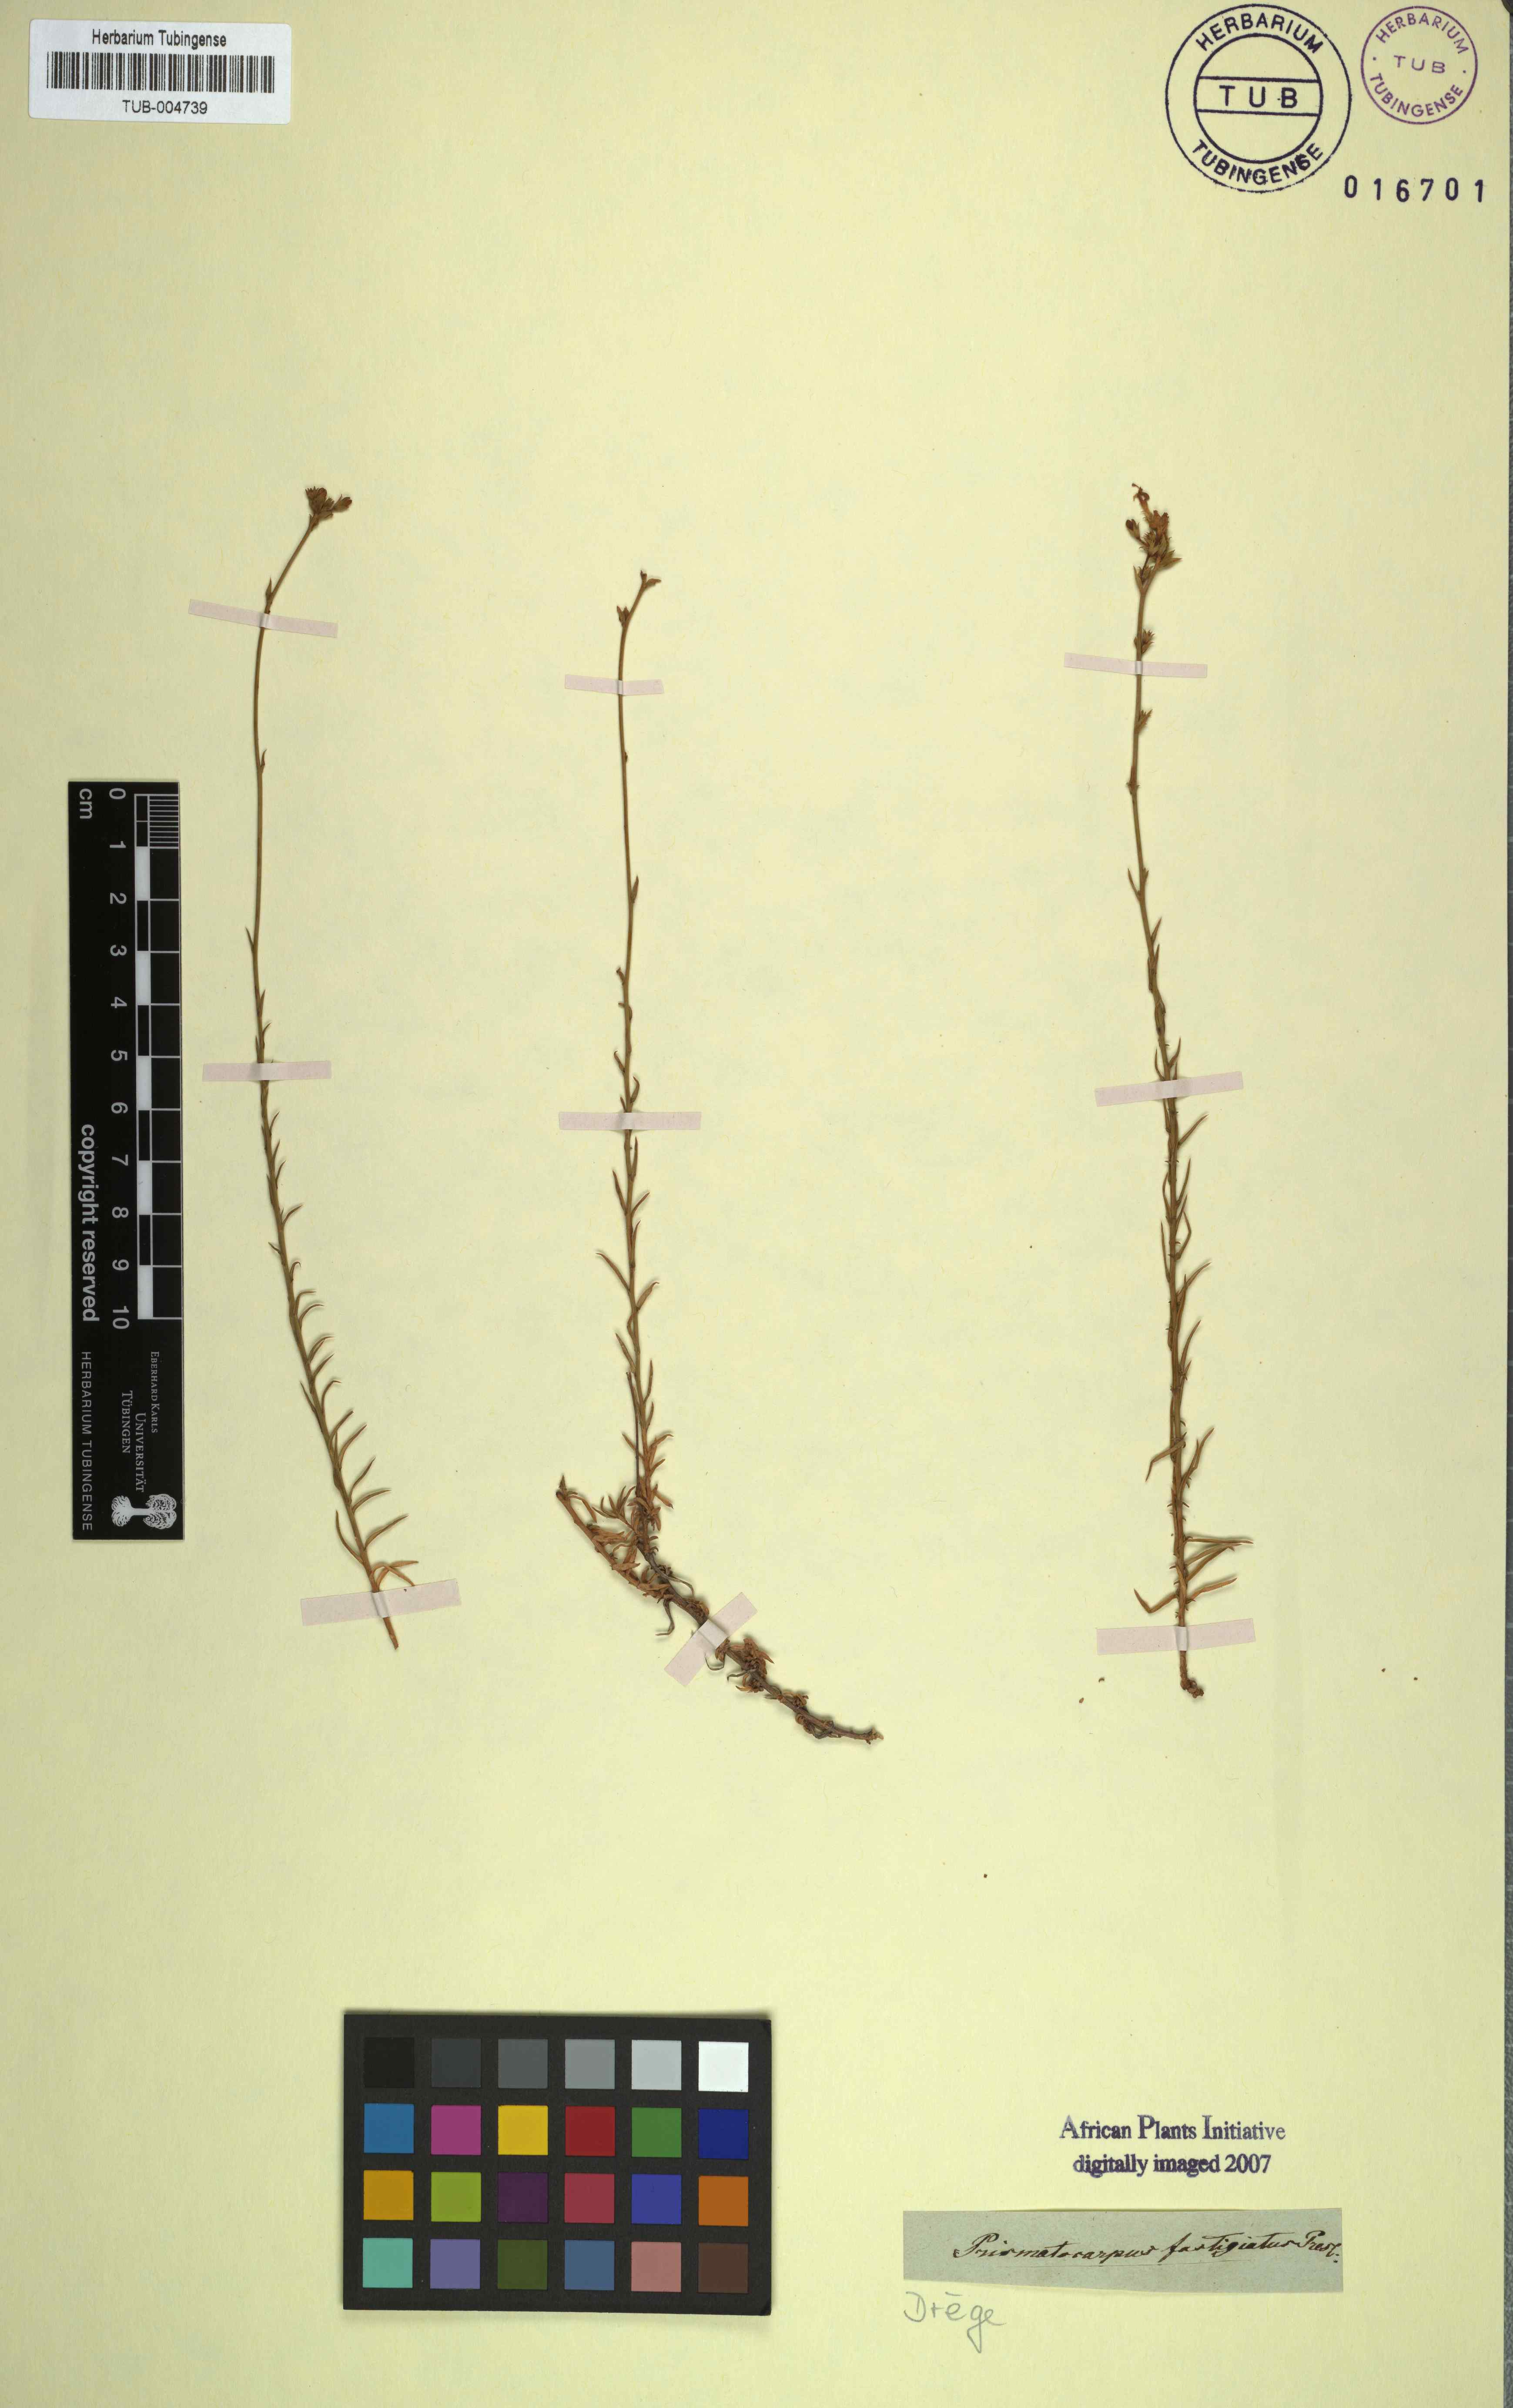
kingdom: Plantae
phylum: Tracheophyta
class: Magnoliopsida
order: Asterales
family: Campanulaceae
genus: Prismatocarpus
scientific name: Prismatocarpus fastigiatus
